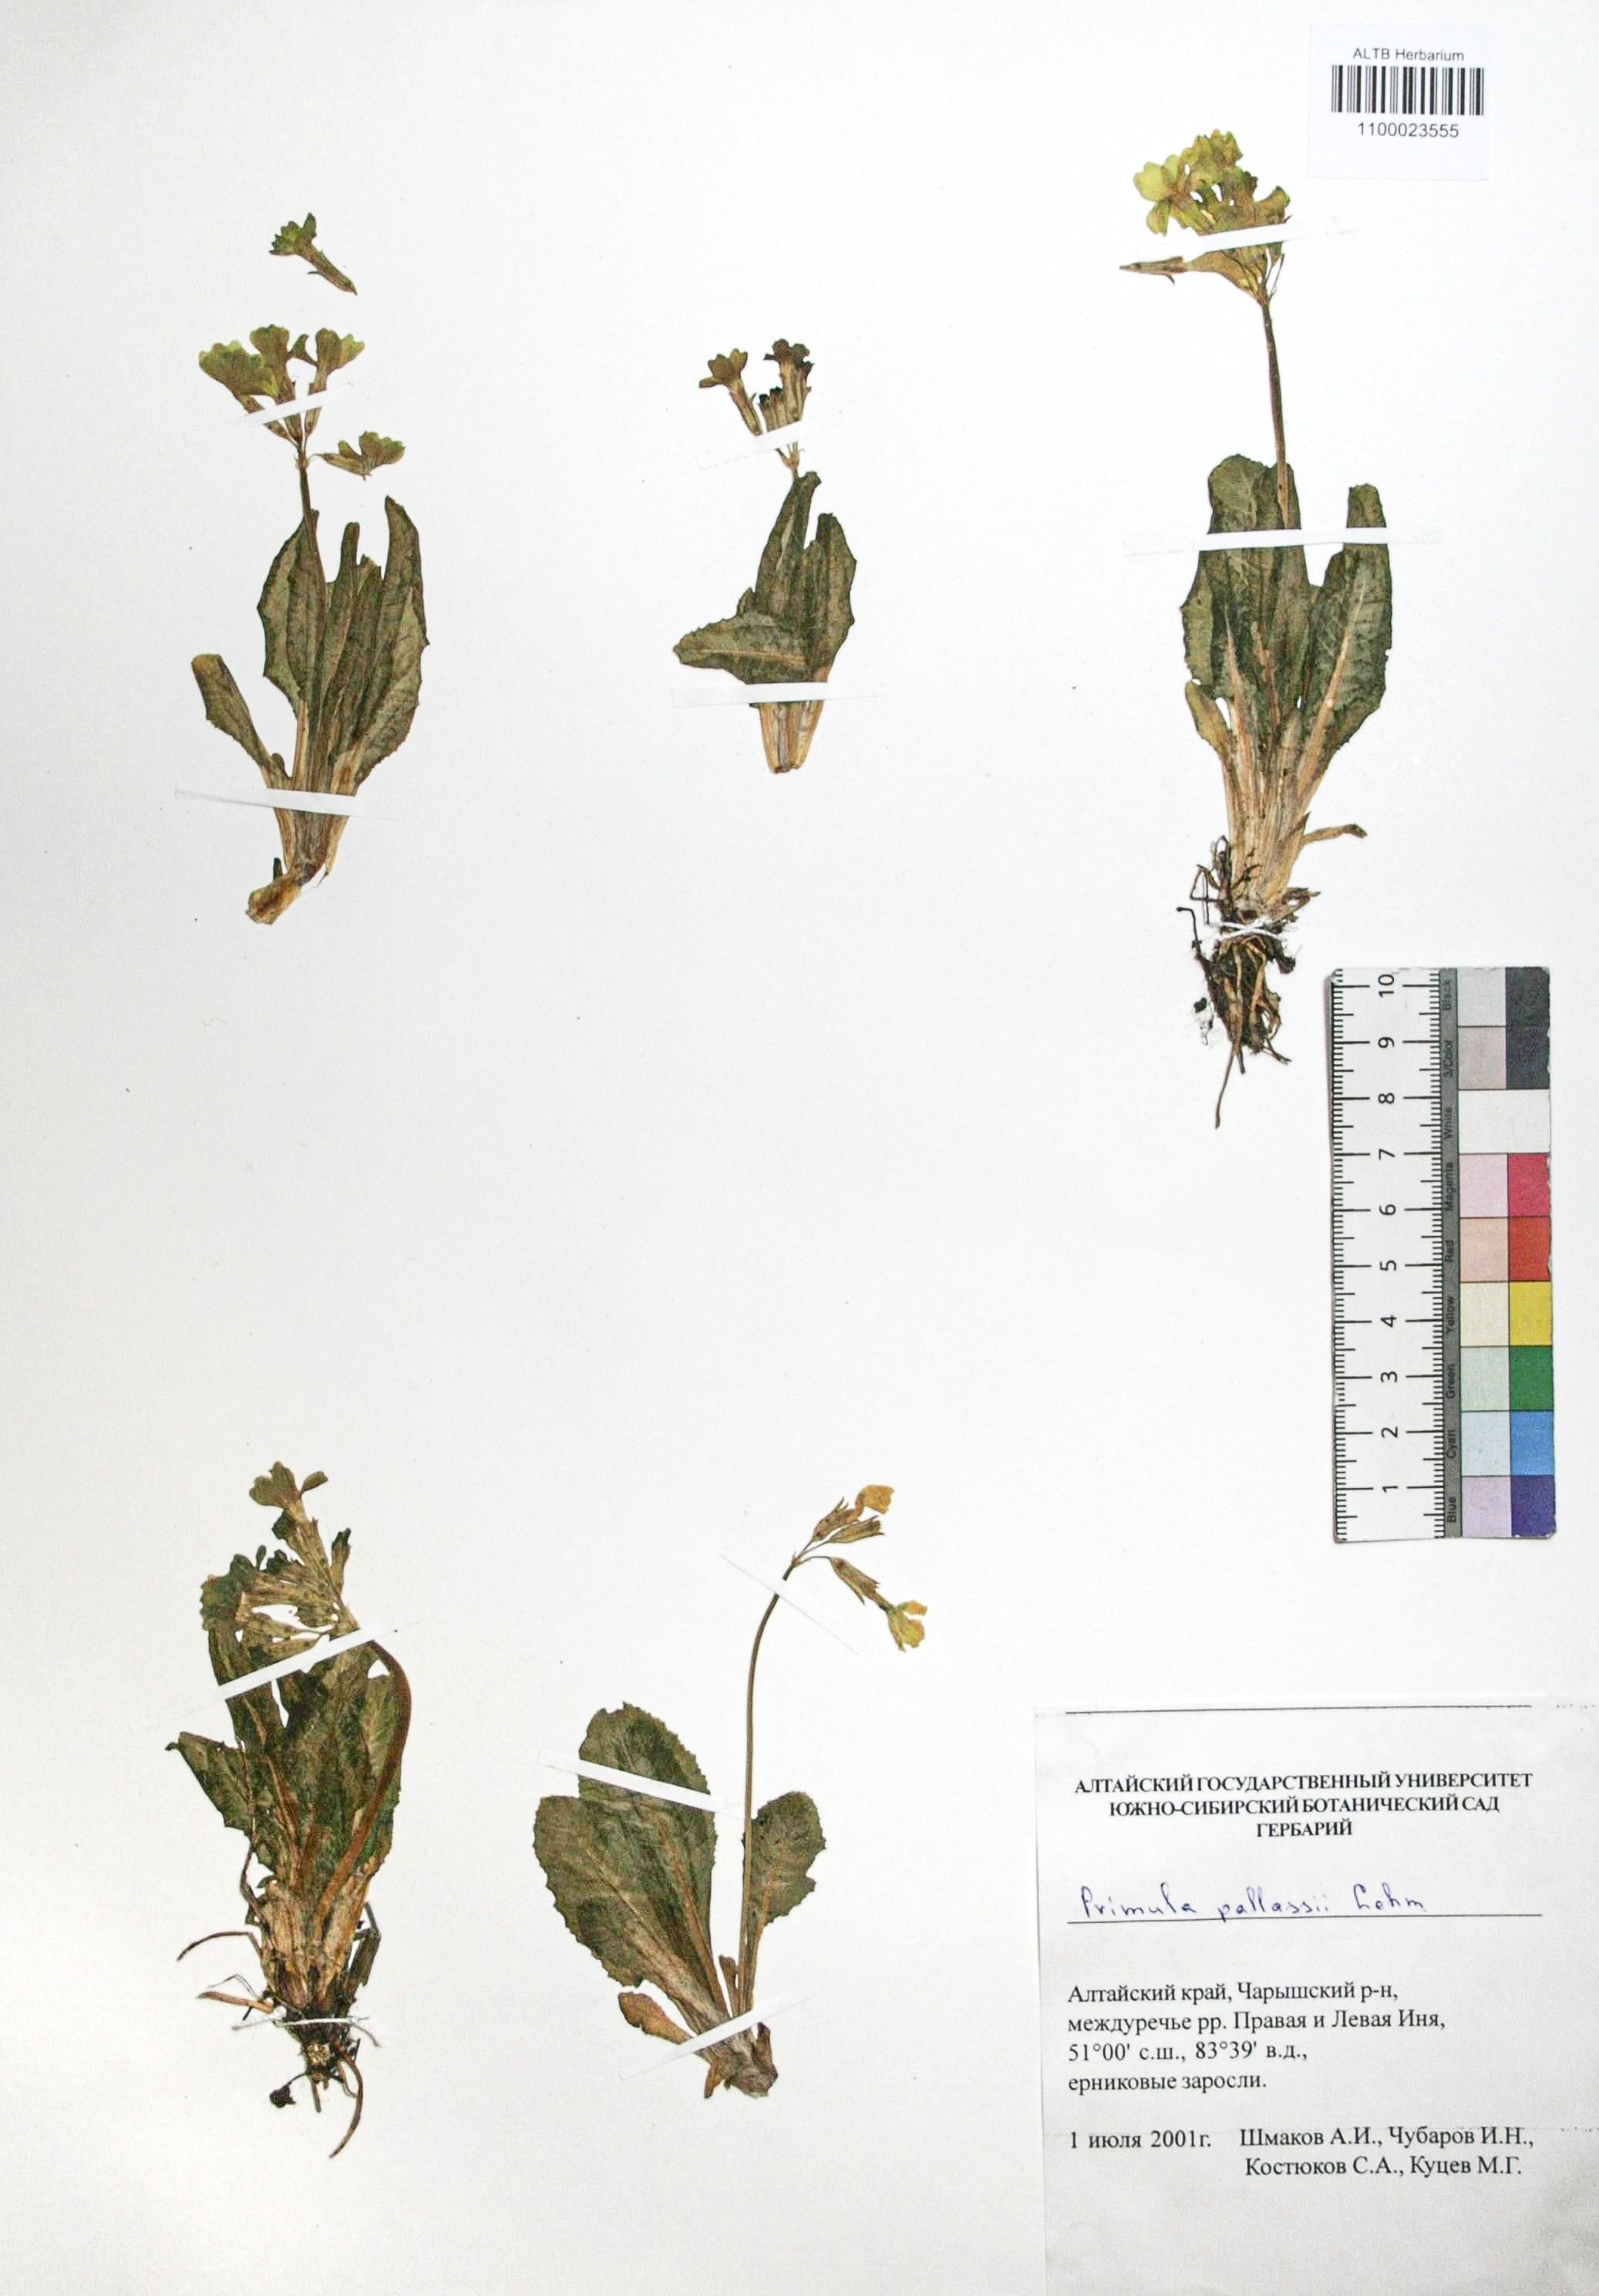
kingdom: Plantae
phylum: Tracheophyta
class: Magnoliopsida
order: Ericales
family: Primulaceae
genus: Primula
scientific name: Primula elatior
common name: Oxlip
